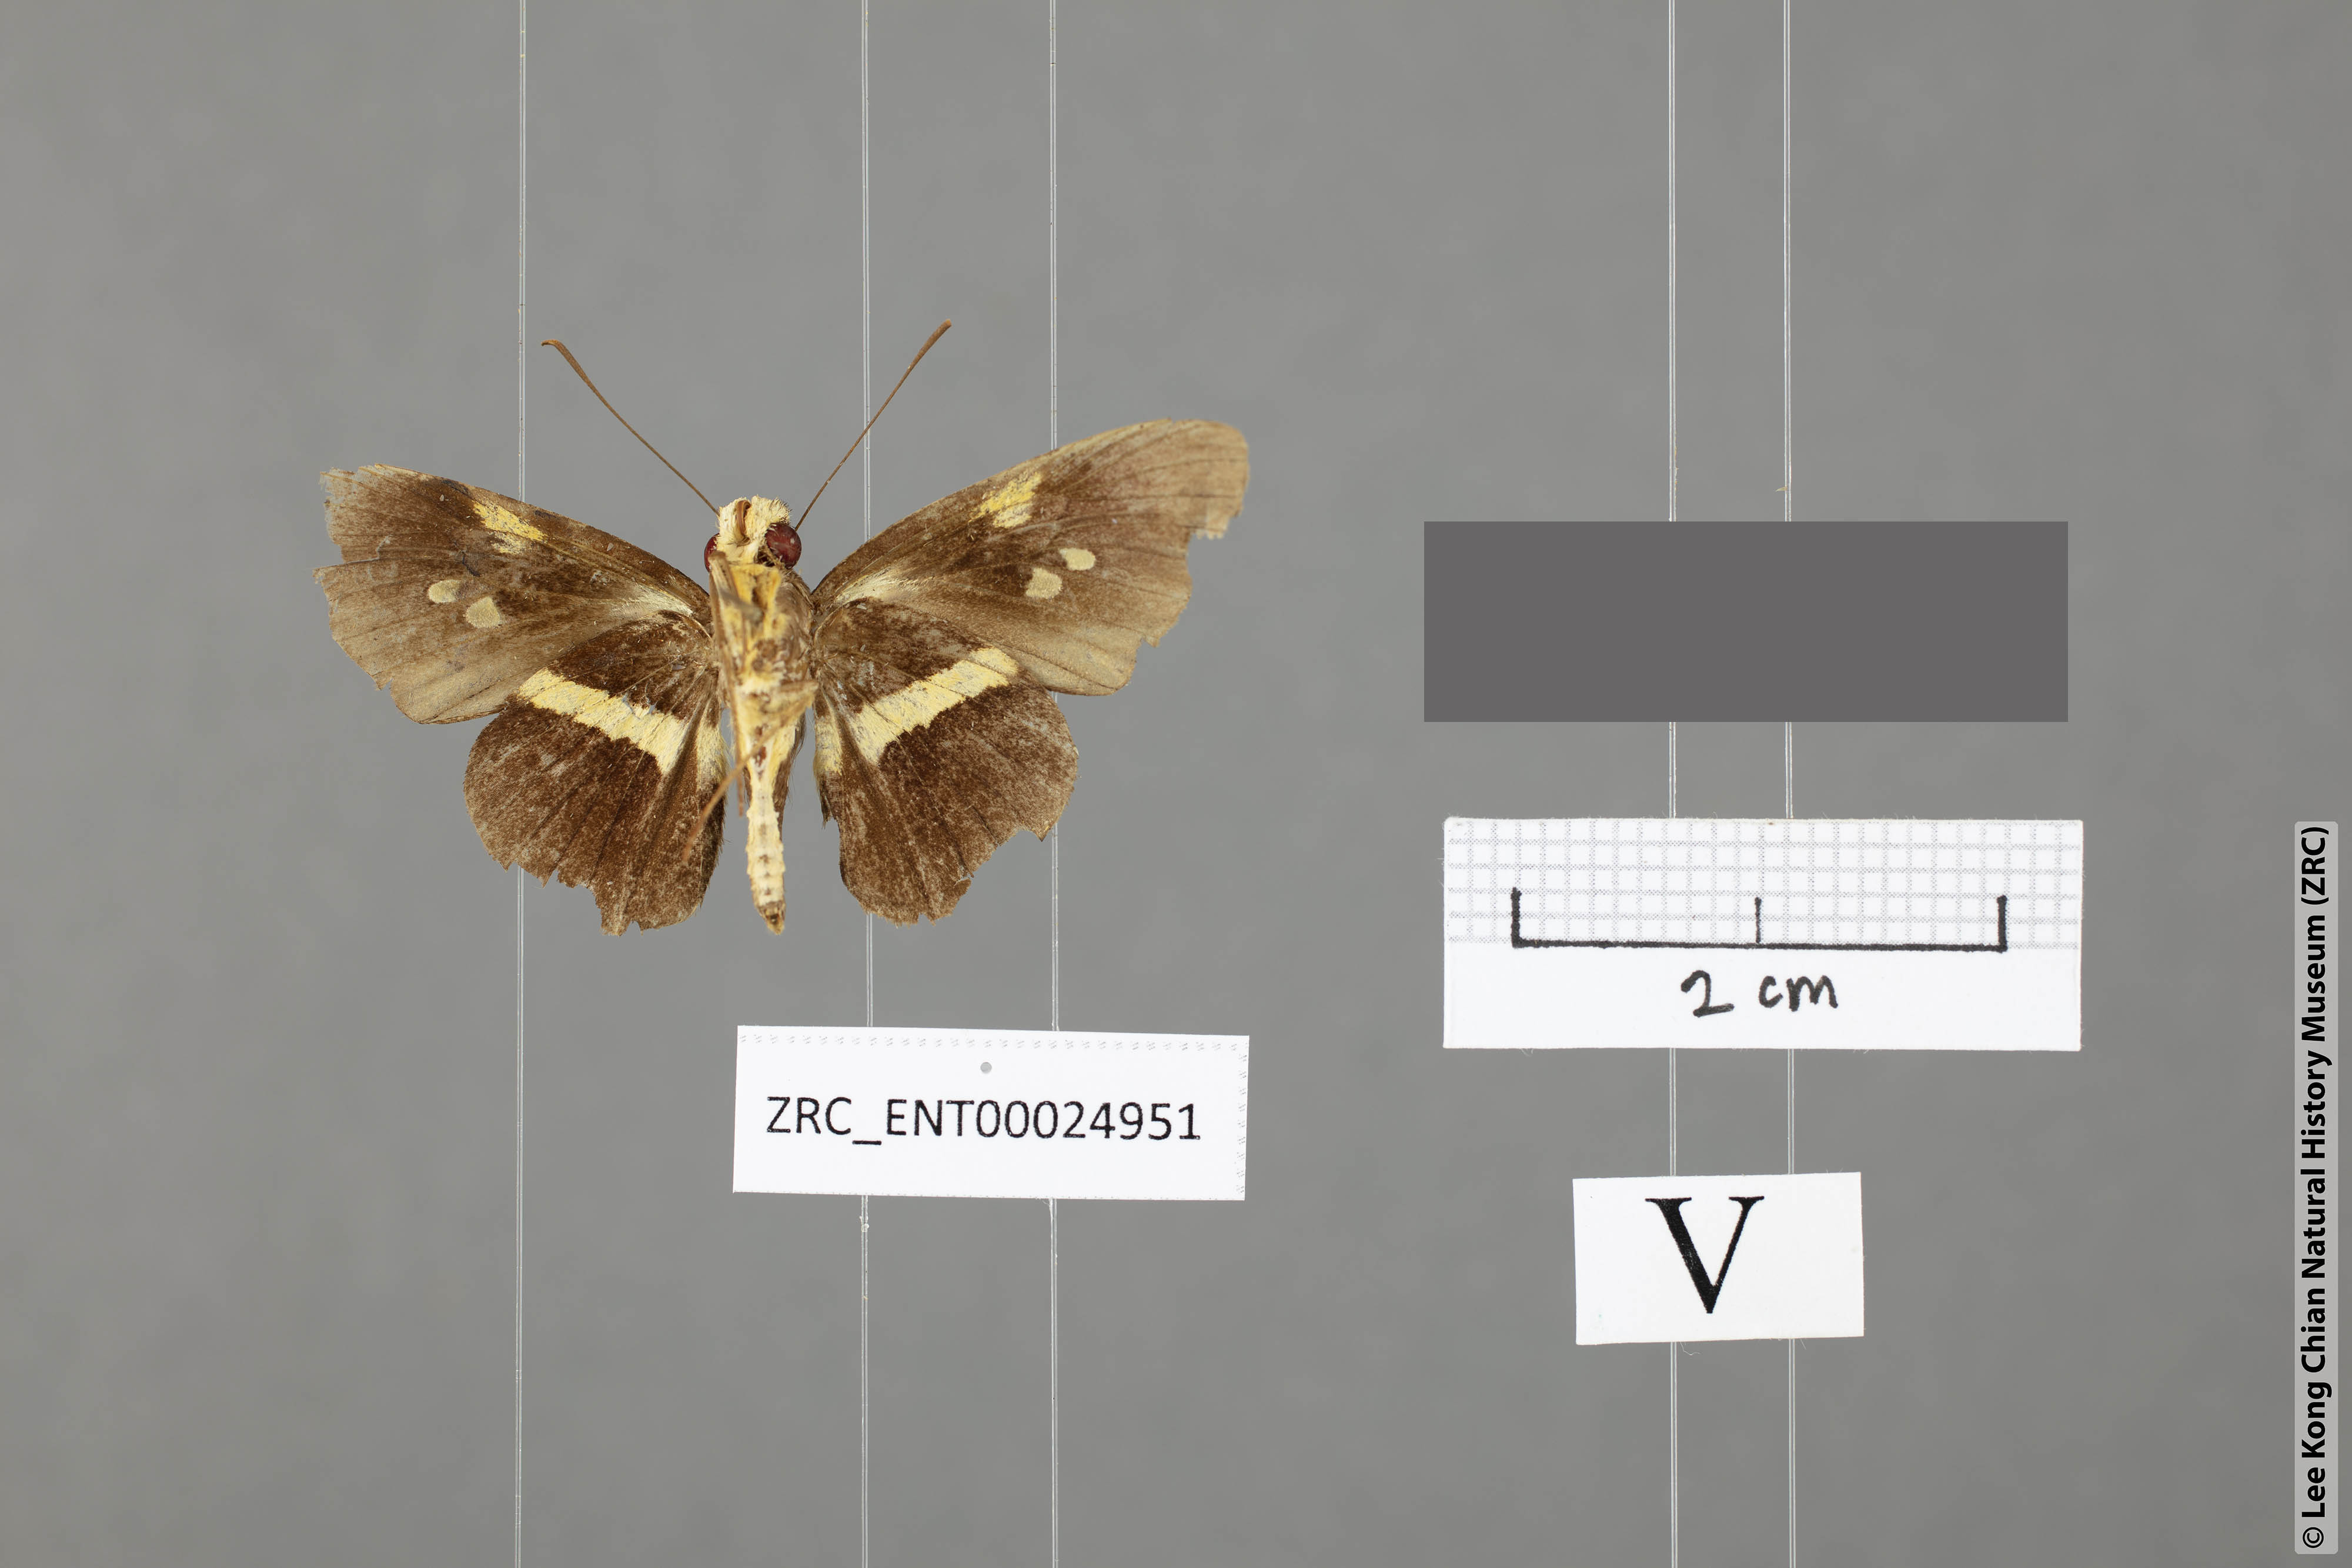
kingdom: Animalia
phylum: Arthropoda
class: Insecta
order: Lepidoptera
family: Hesperiidae
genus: Lotongus
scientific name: Lotongus avesta
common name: Yellow-band palmer
